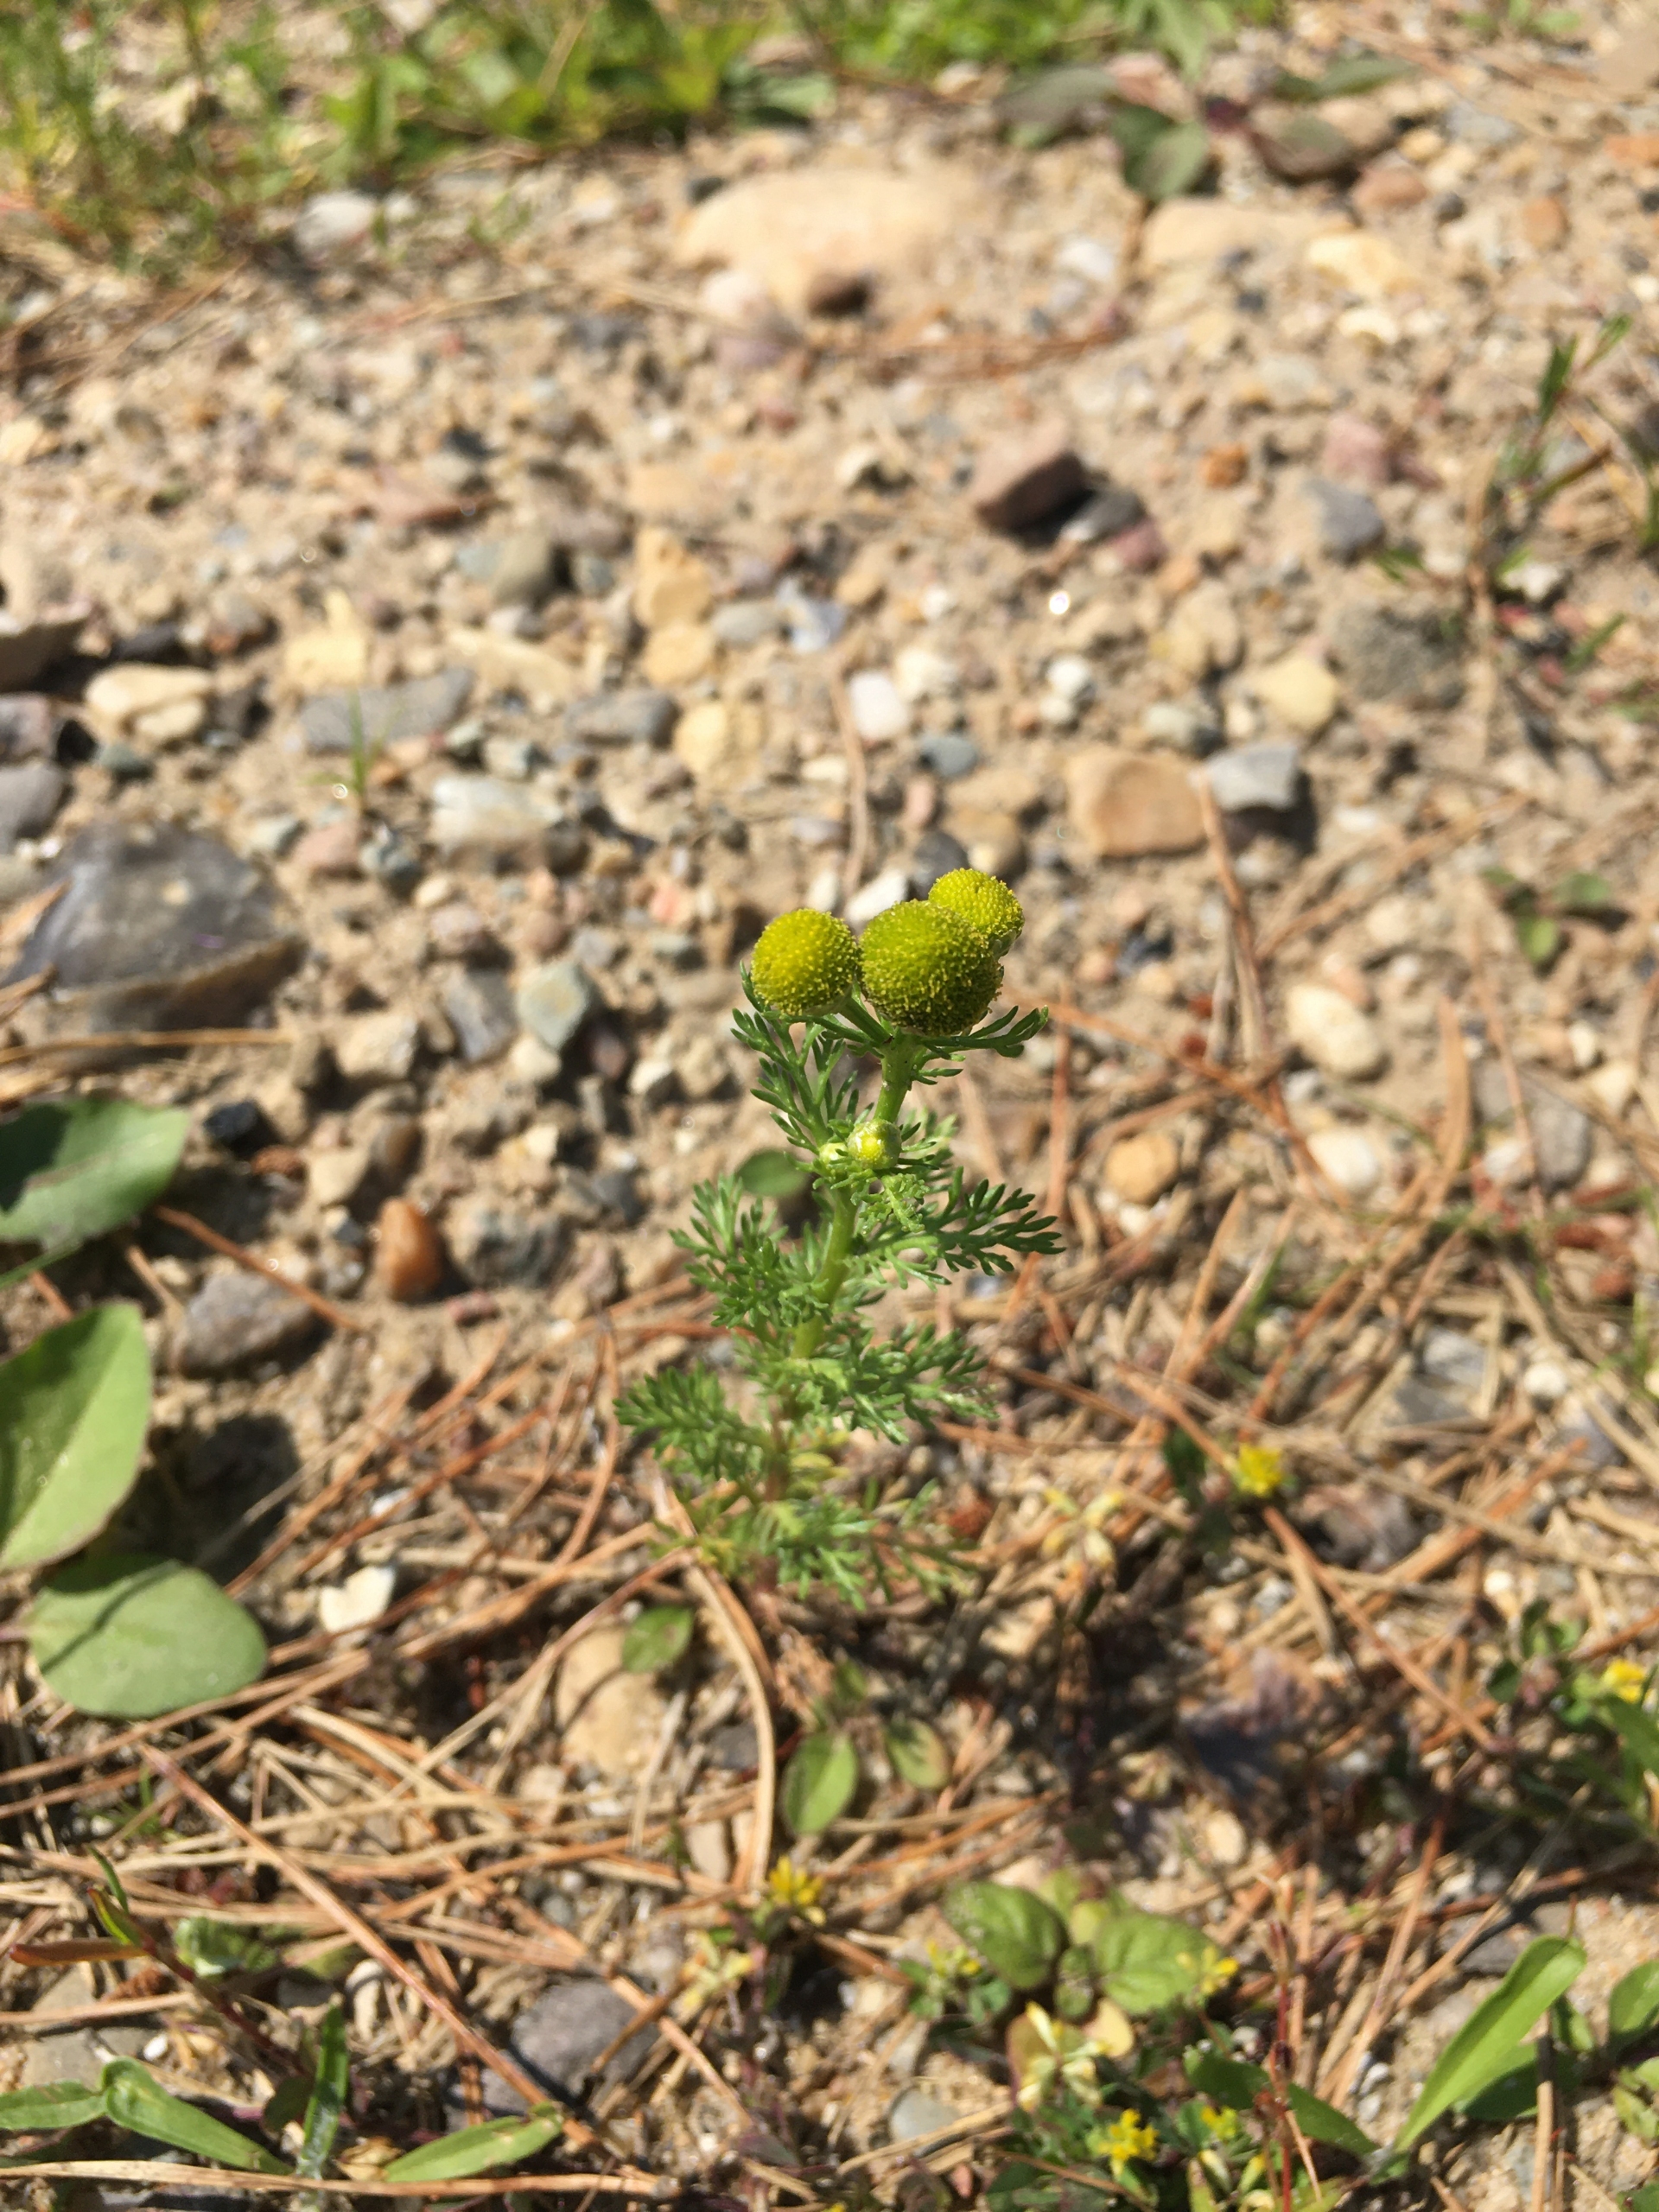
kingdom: Plantae
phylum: Tracheophyta
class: Magnoliopsida
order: Asterales
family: Asteraceae
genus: Matricaria
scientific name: Matricaria discoidea
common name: Skive-kamille
